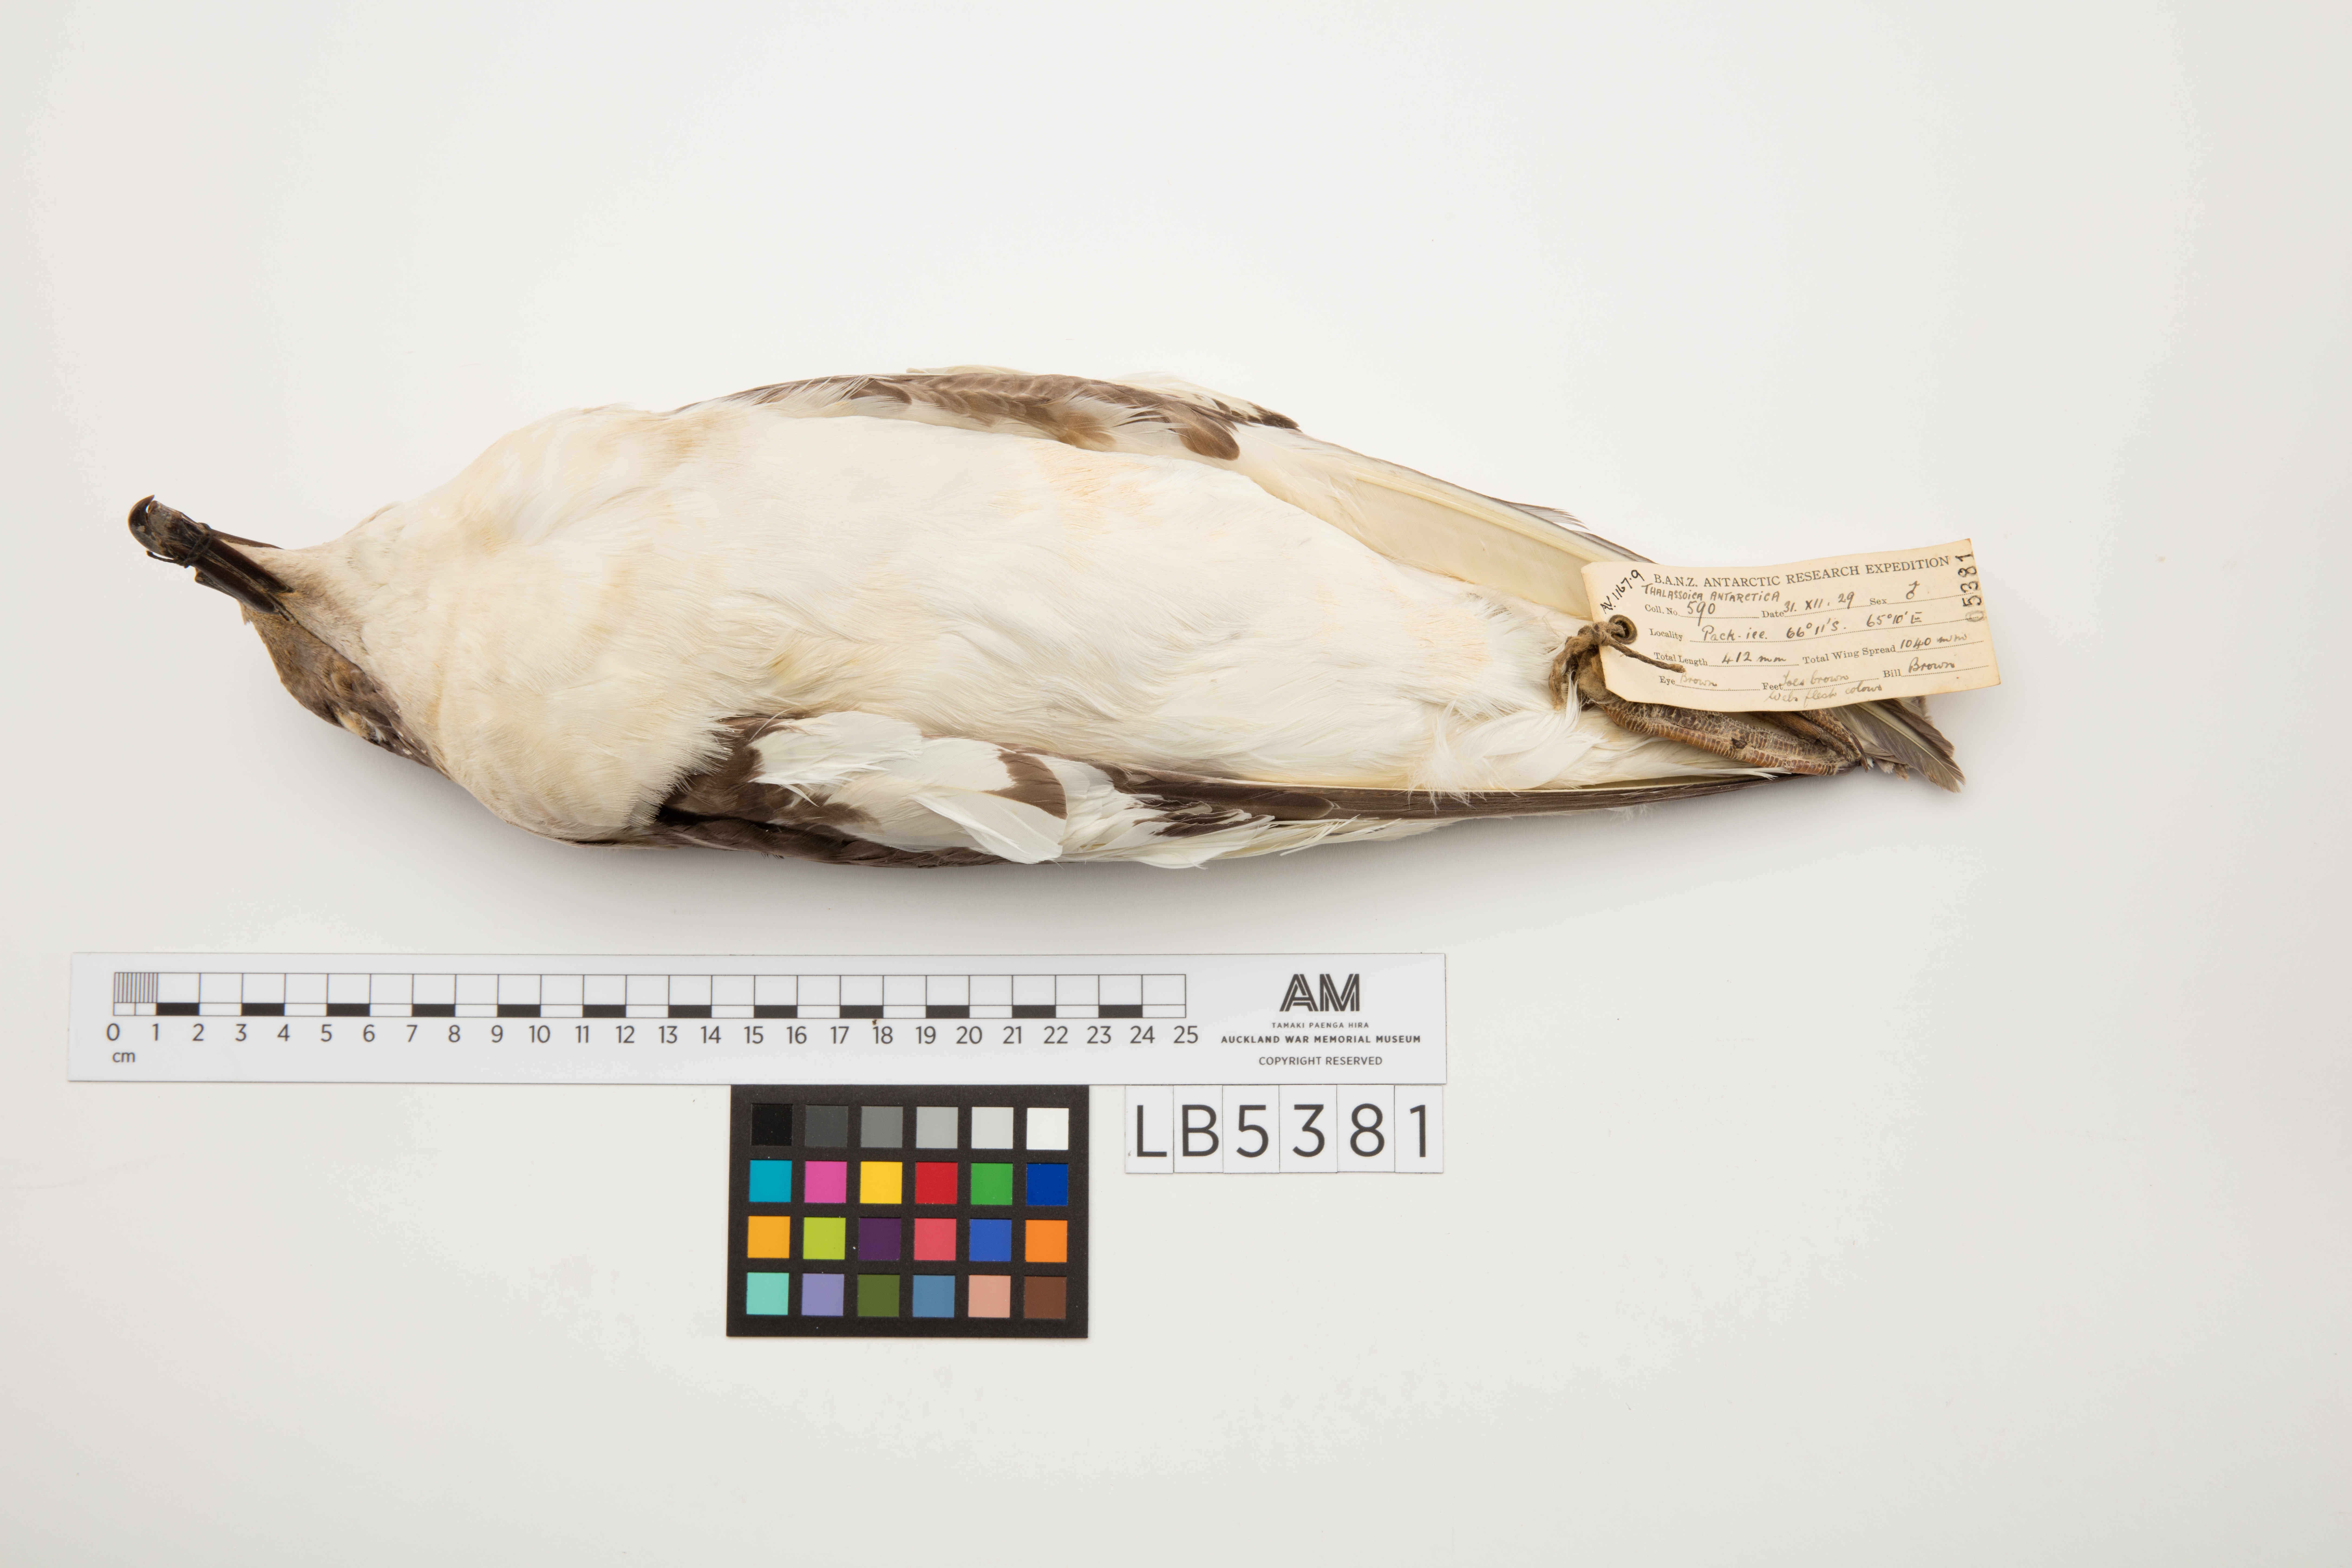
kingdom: Animalia
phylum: Chordata
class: Aves
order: Procellariiformes
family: Procellariidae
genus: Thalassoica
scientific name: Thalassoica antarctica
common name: Antarctic petrel
